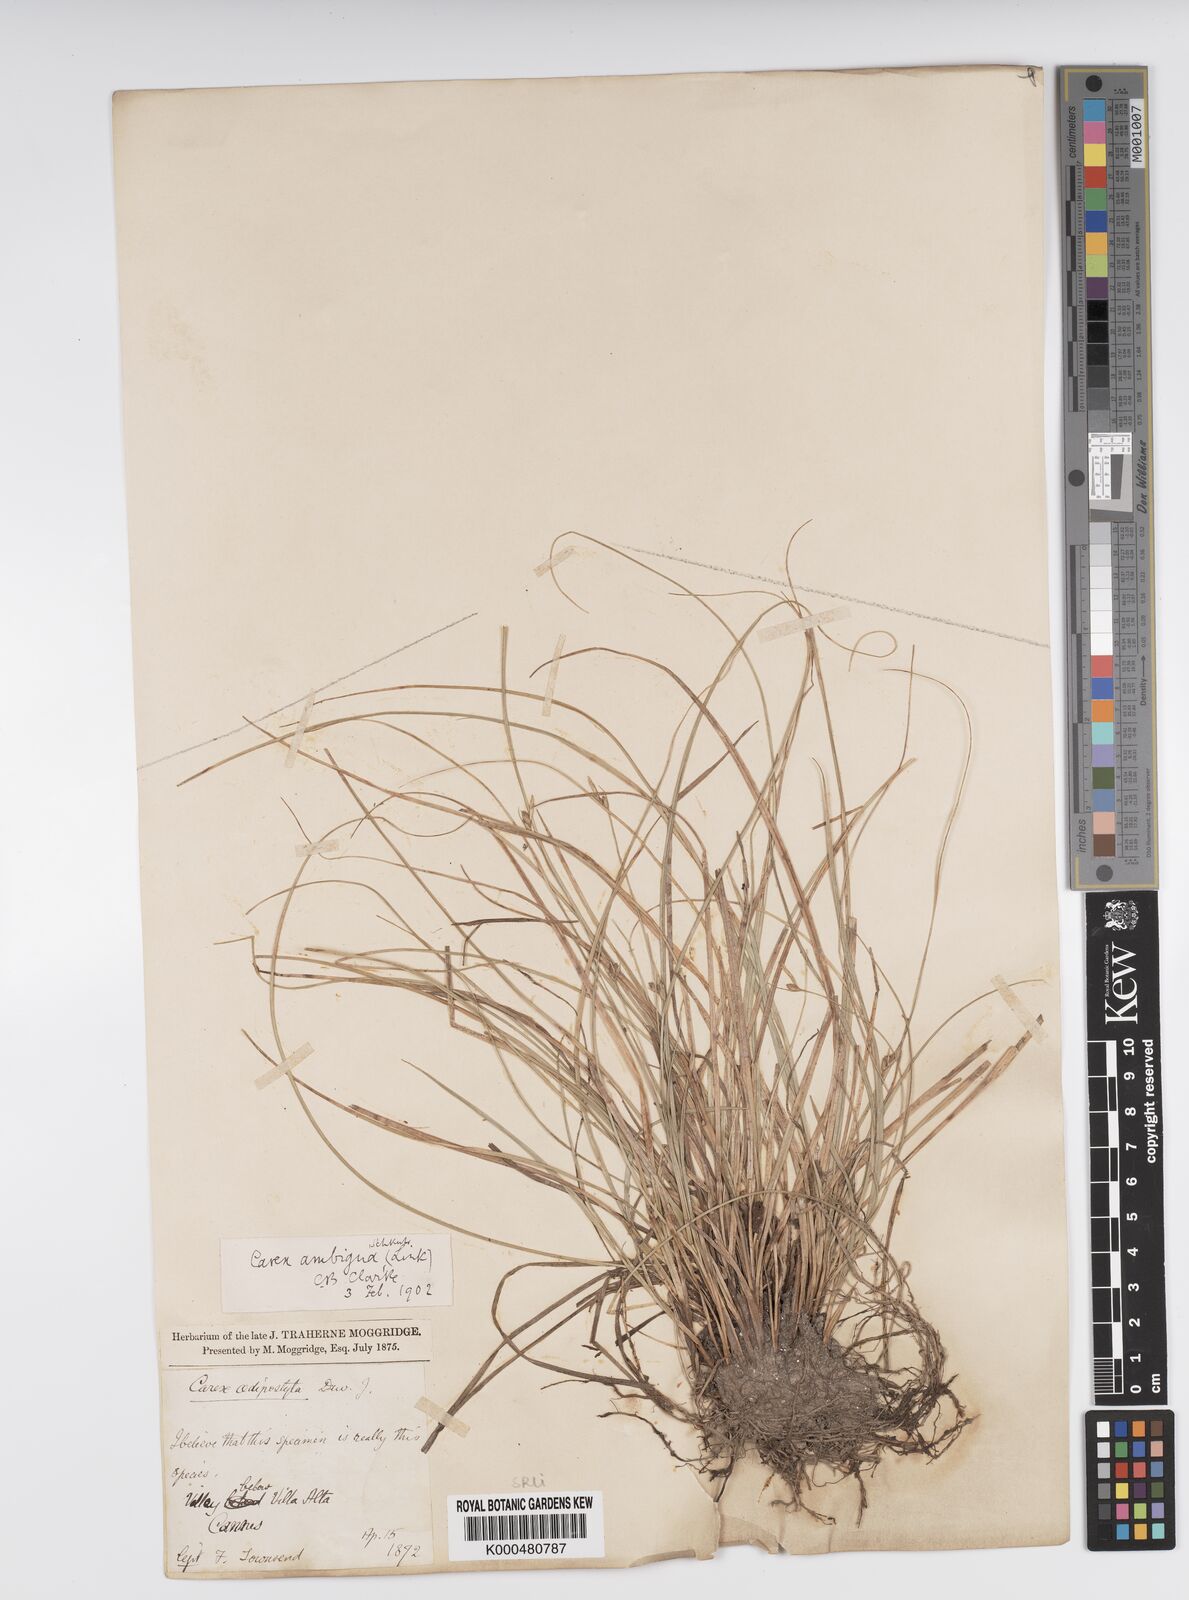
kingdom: Plantae
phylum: Tracheophyta
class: Liliopsida
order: Poales
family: Cyperaceae
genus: Carex
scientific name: Carex
